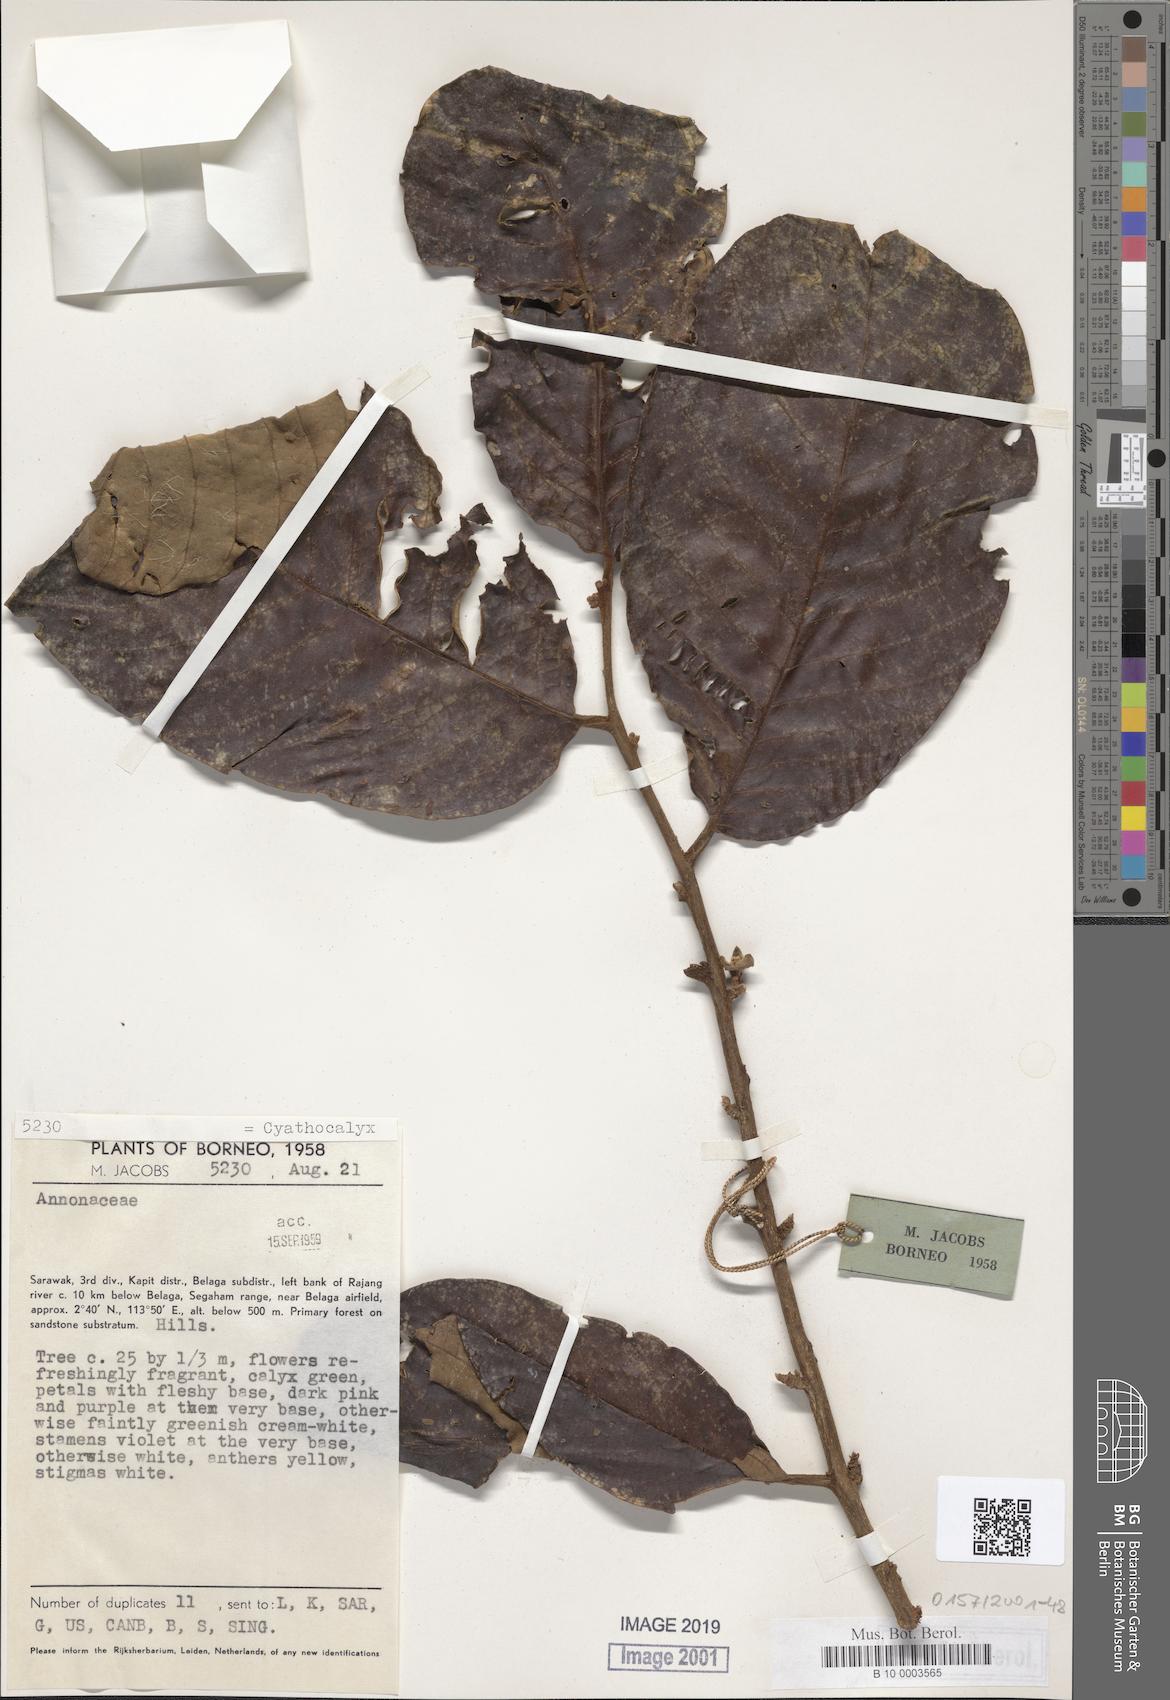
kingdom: Plantae
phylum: Tracheophyta
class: Magnoliopsida
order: Magnoliales
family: Annonaceae
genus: Cyathocalyx
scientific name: Cyathocalyx
